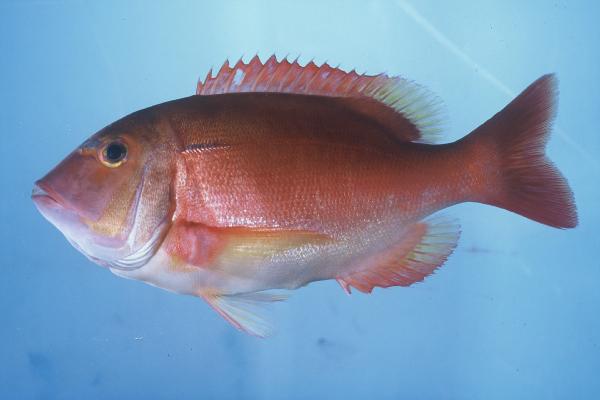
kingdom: Animalia
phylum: Chordata
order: Perciformes
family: Sparidae
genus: Porcostoma
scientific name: Porcostoma dentata
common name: Dane
